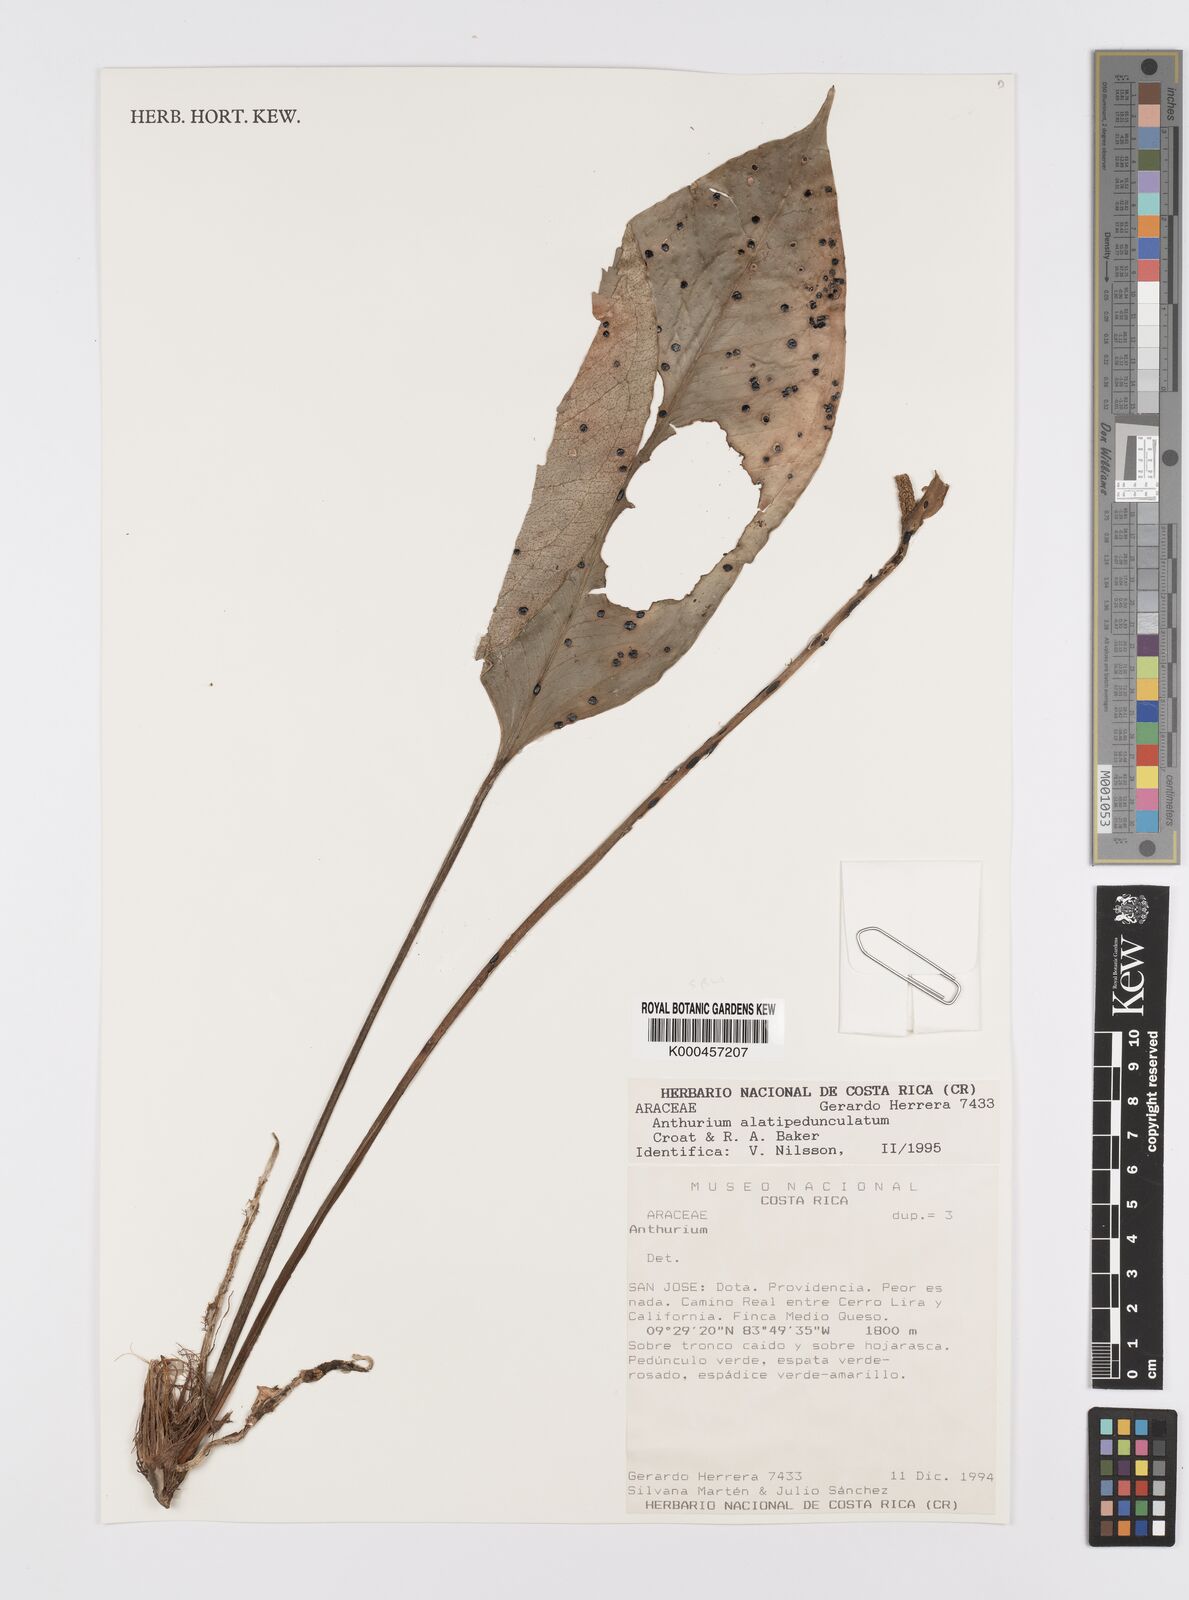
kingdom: Plantae
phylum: Tracheophyta
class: Liliopsida
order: Alismatales
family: Araceae
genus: Anthurium
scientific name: Anthurium alatipedunculatum
